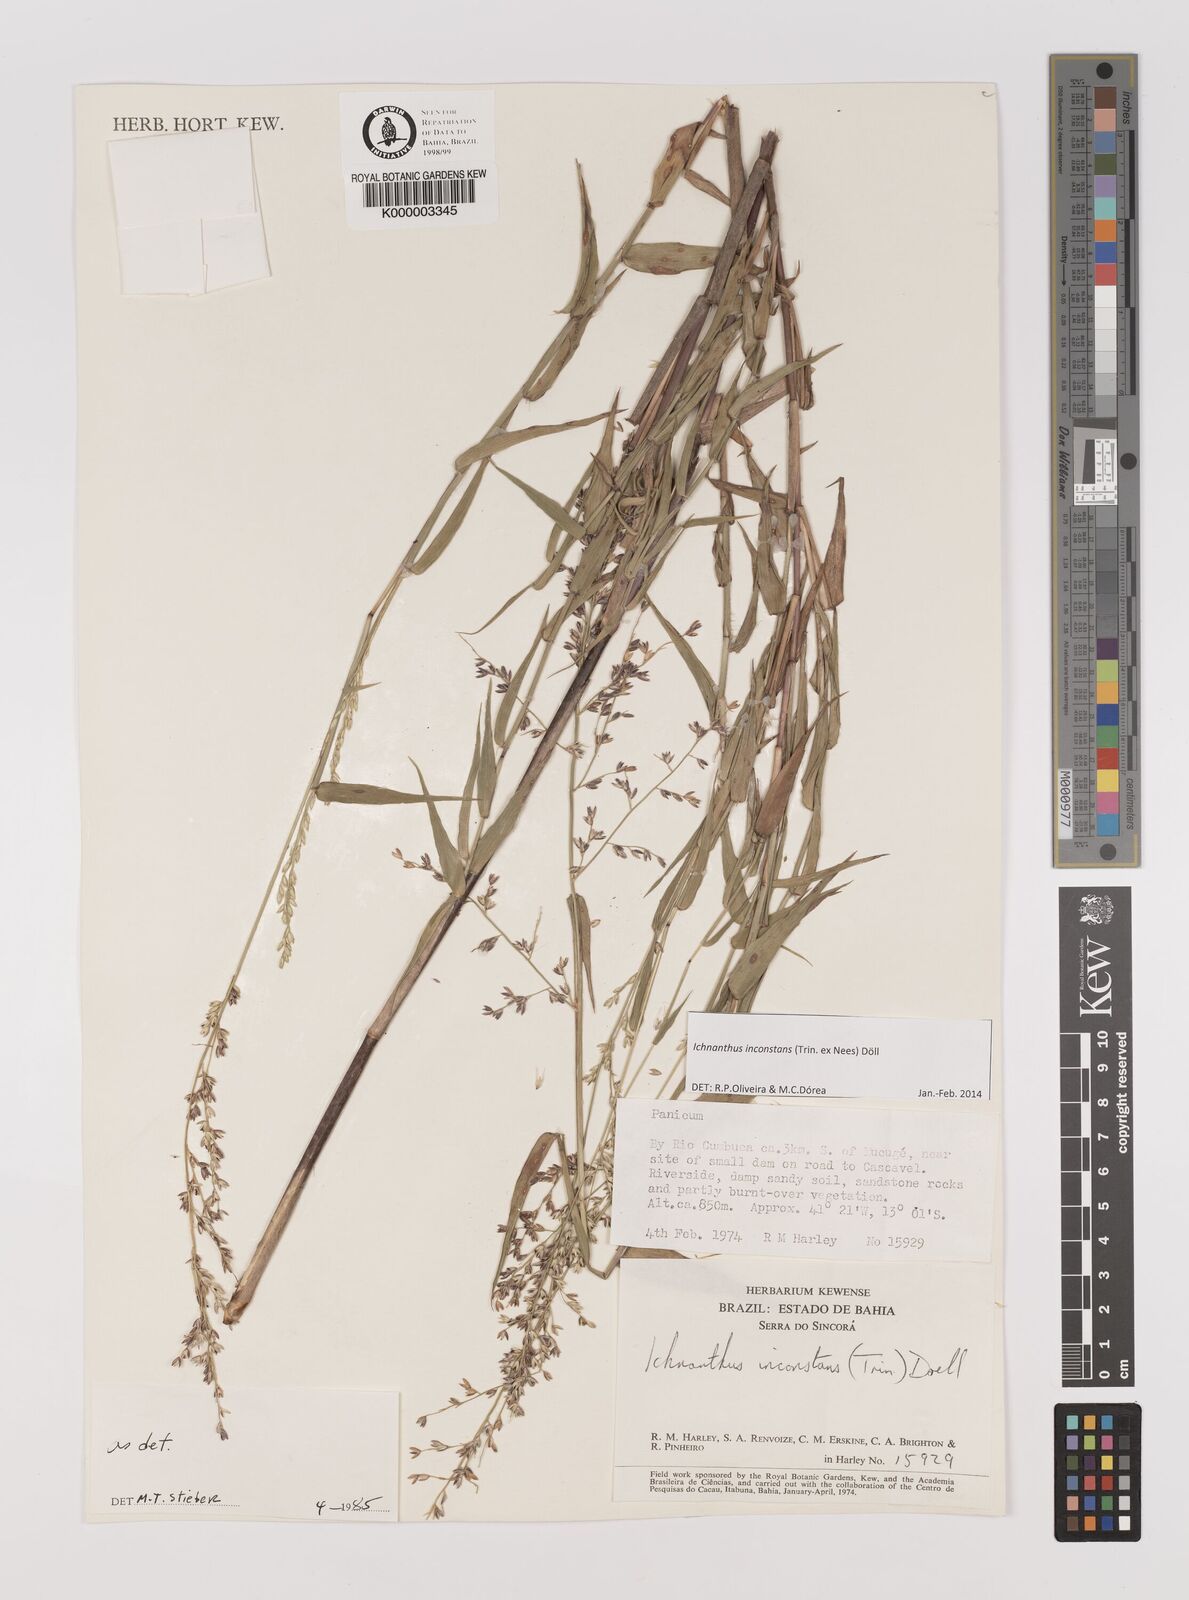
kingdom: Plantae
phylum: Tracheophyta
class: Liliopsida
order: Poales
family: Poaceae
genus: Ichnanthus
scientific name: Ichnanthus
